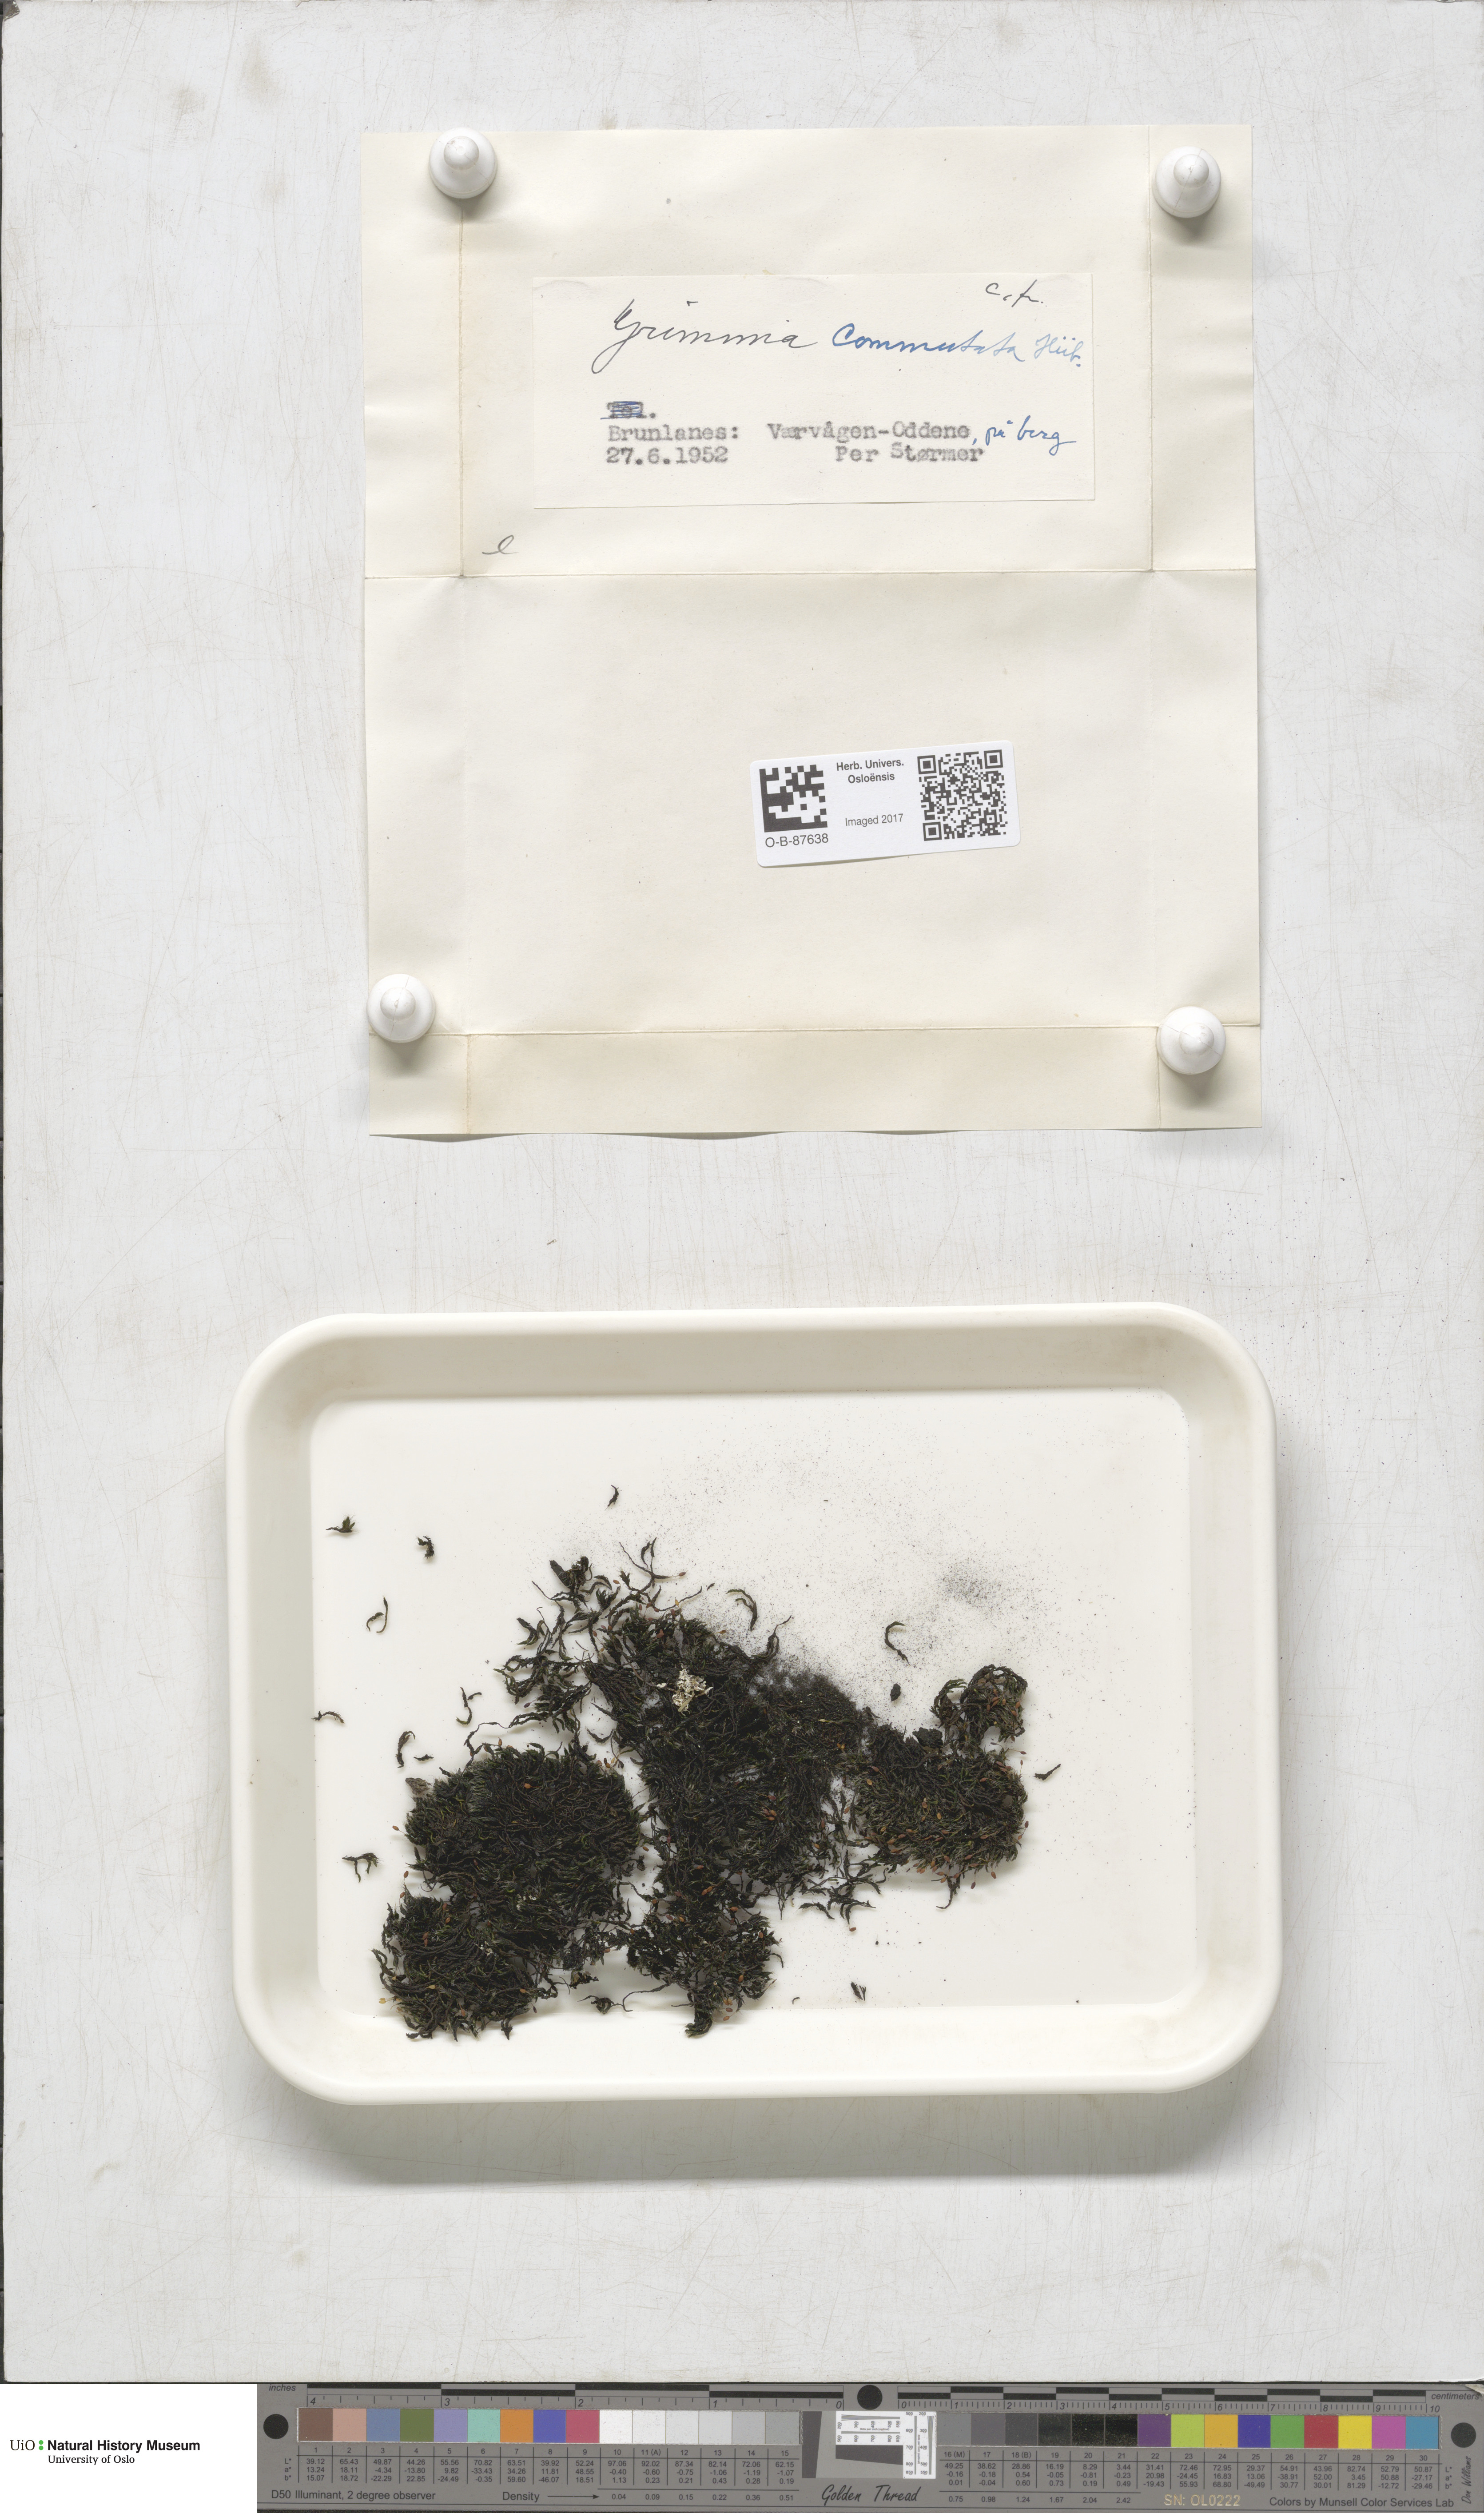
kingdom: Plantae
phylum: Bryophyta
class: Bryopsida
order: Grimmiales
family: Grimmiaceae
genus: Grimmia
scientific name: Grimmia ovalis
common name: Oval grimmia
